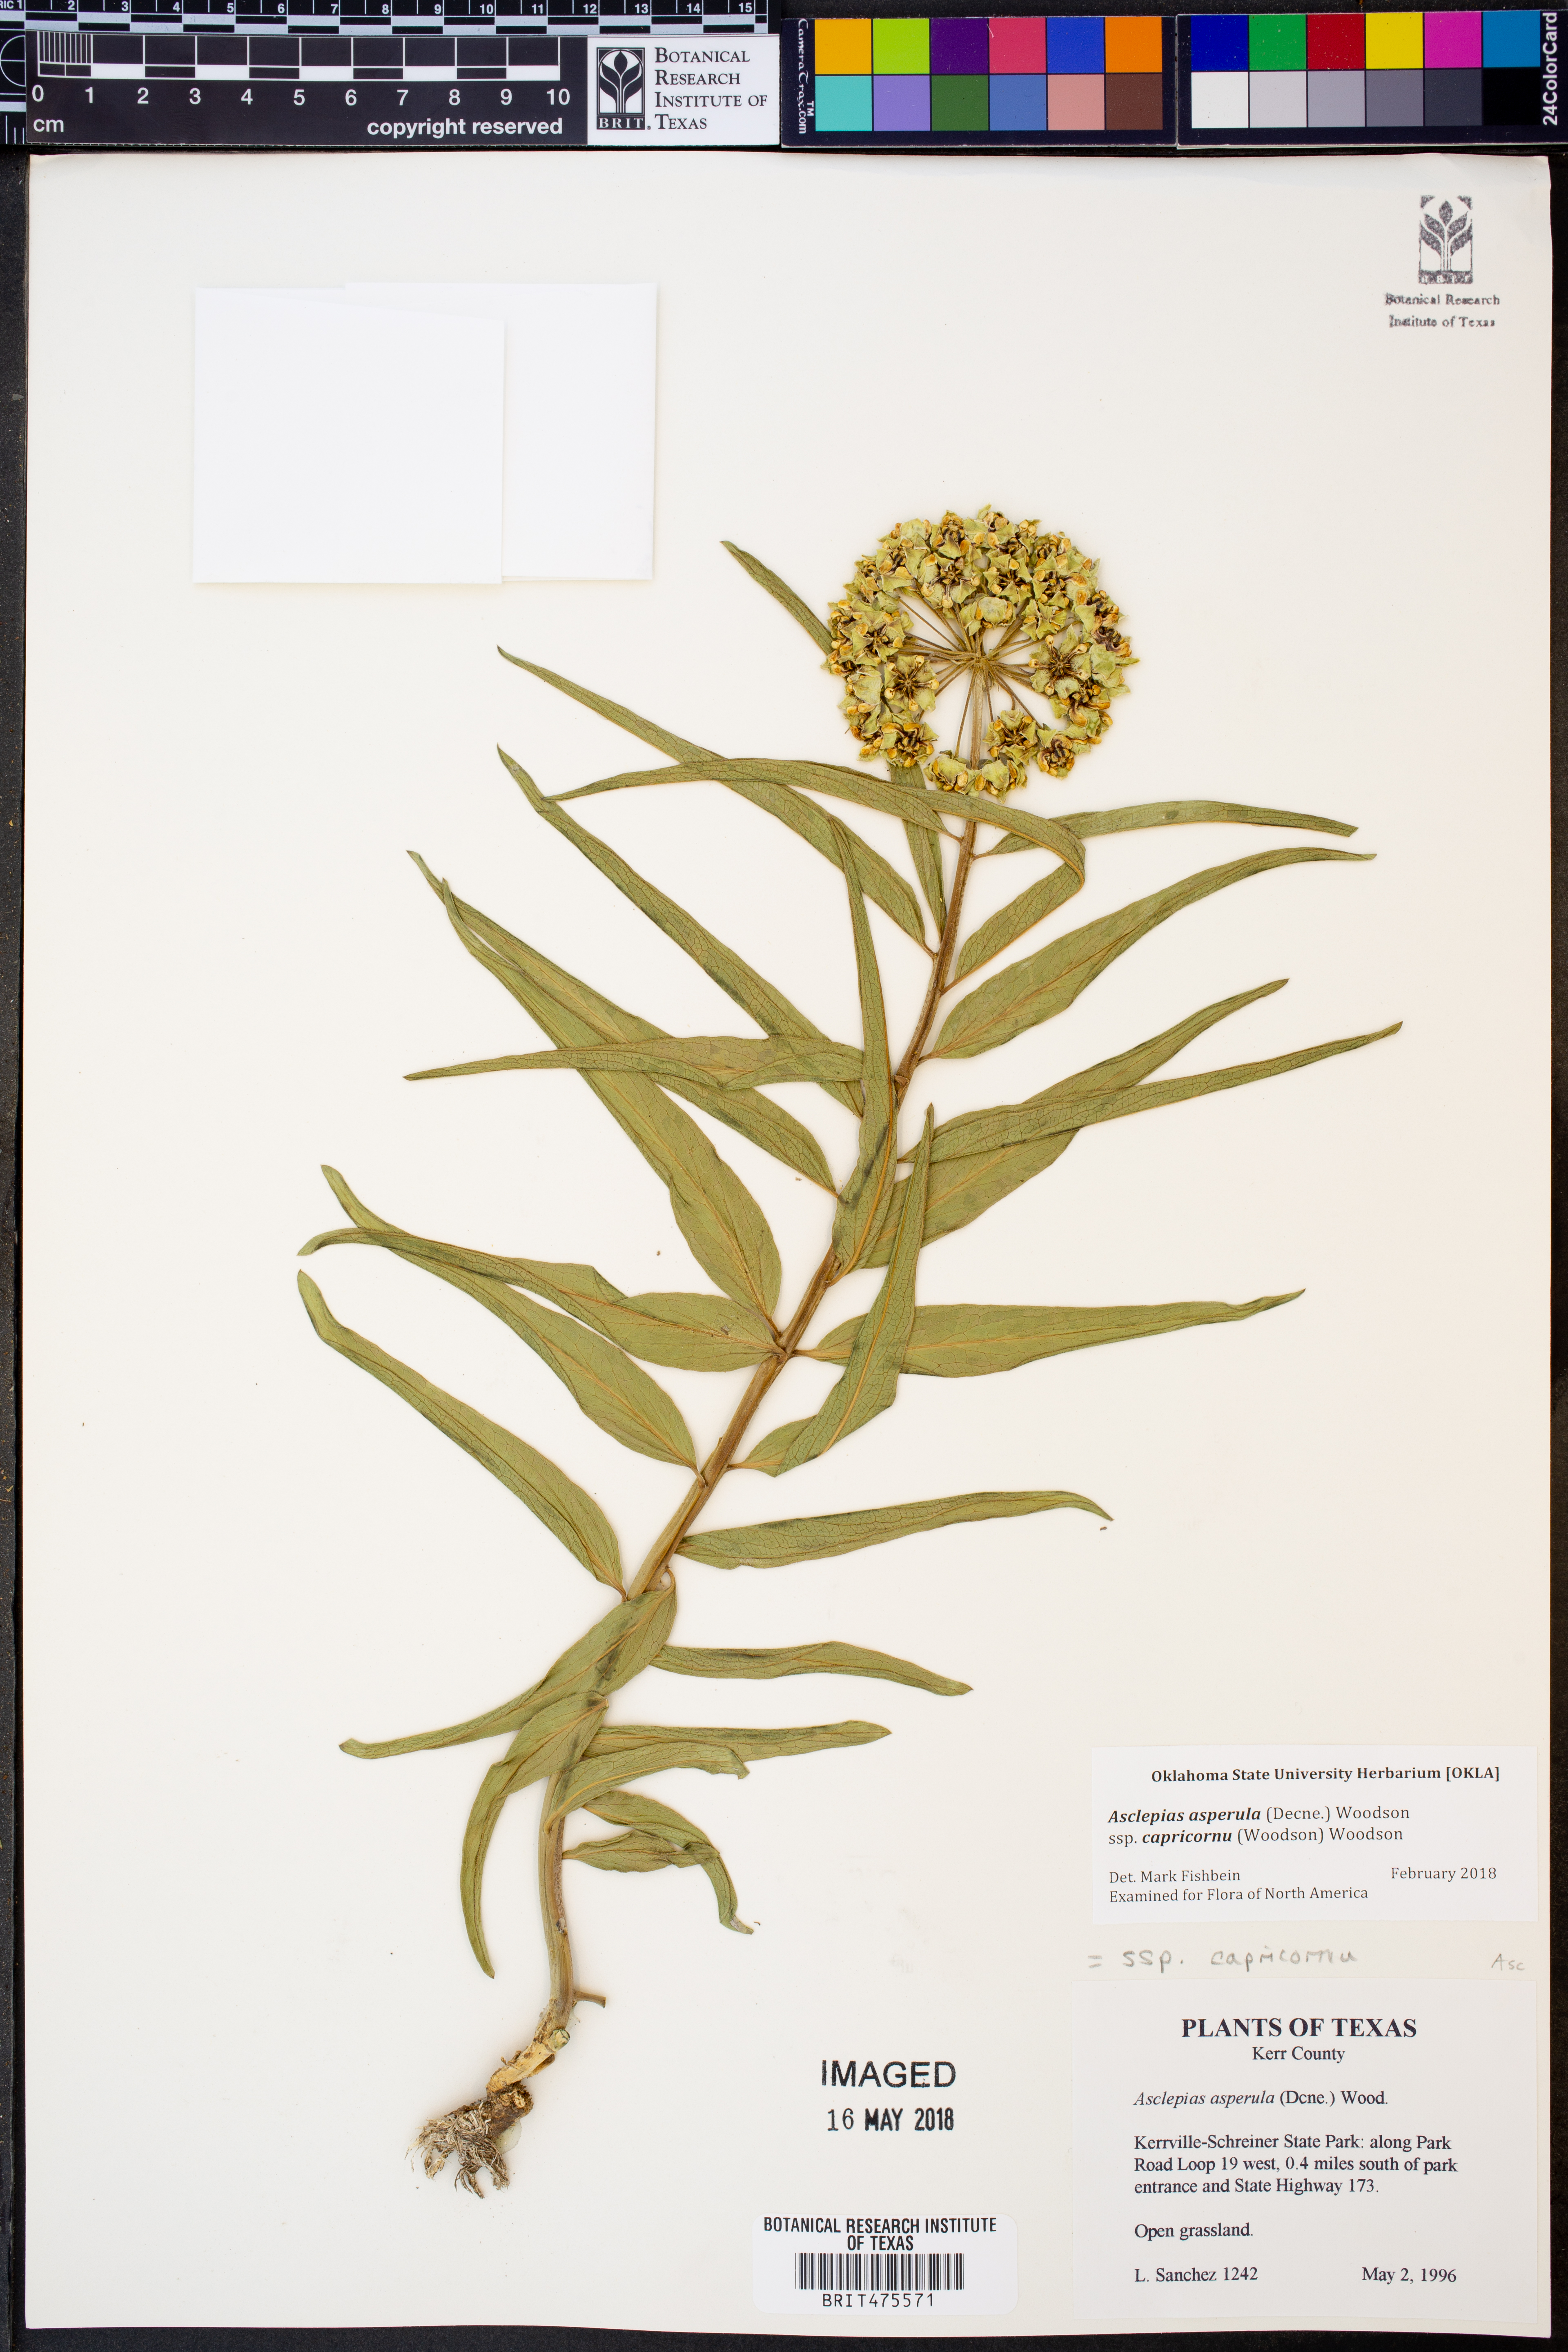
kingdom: Plantae
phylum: Tracheophyta
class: Magnoliopsida
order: Gentianales
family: Apocynaceae
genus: Asclepias
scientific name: Asclepias asperula
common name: Antelope horns
